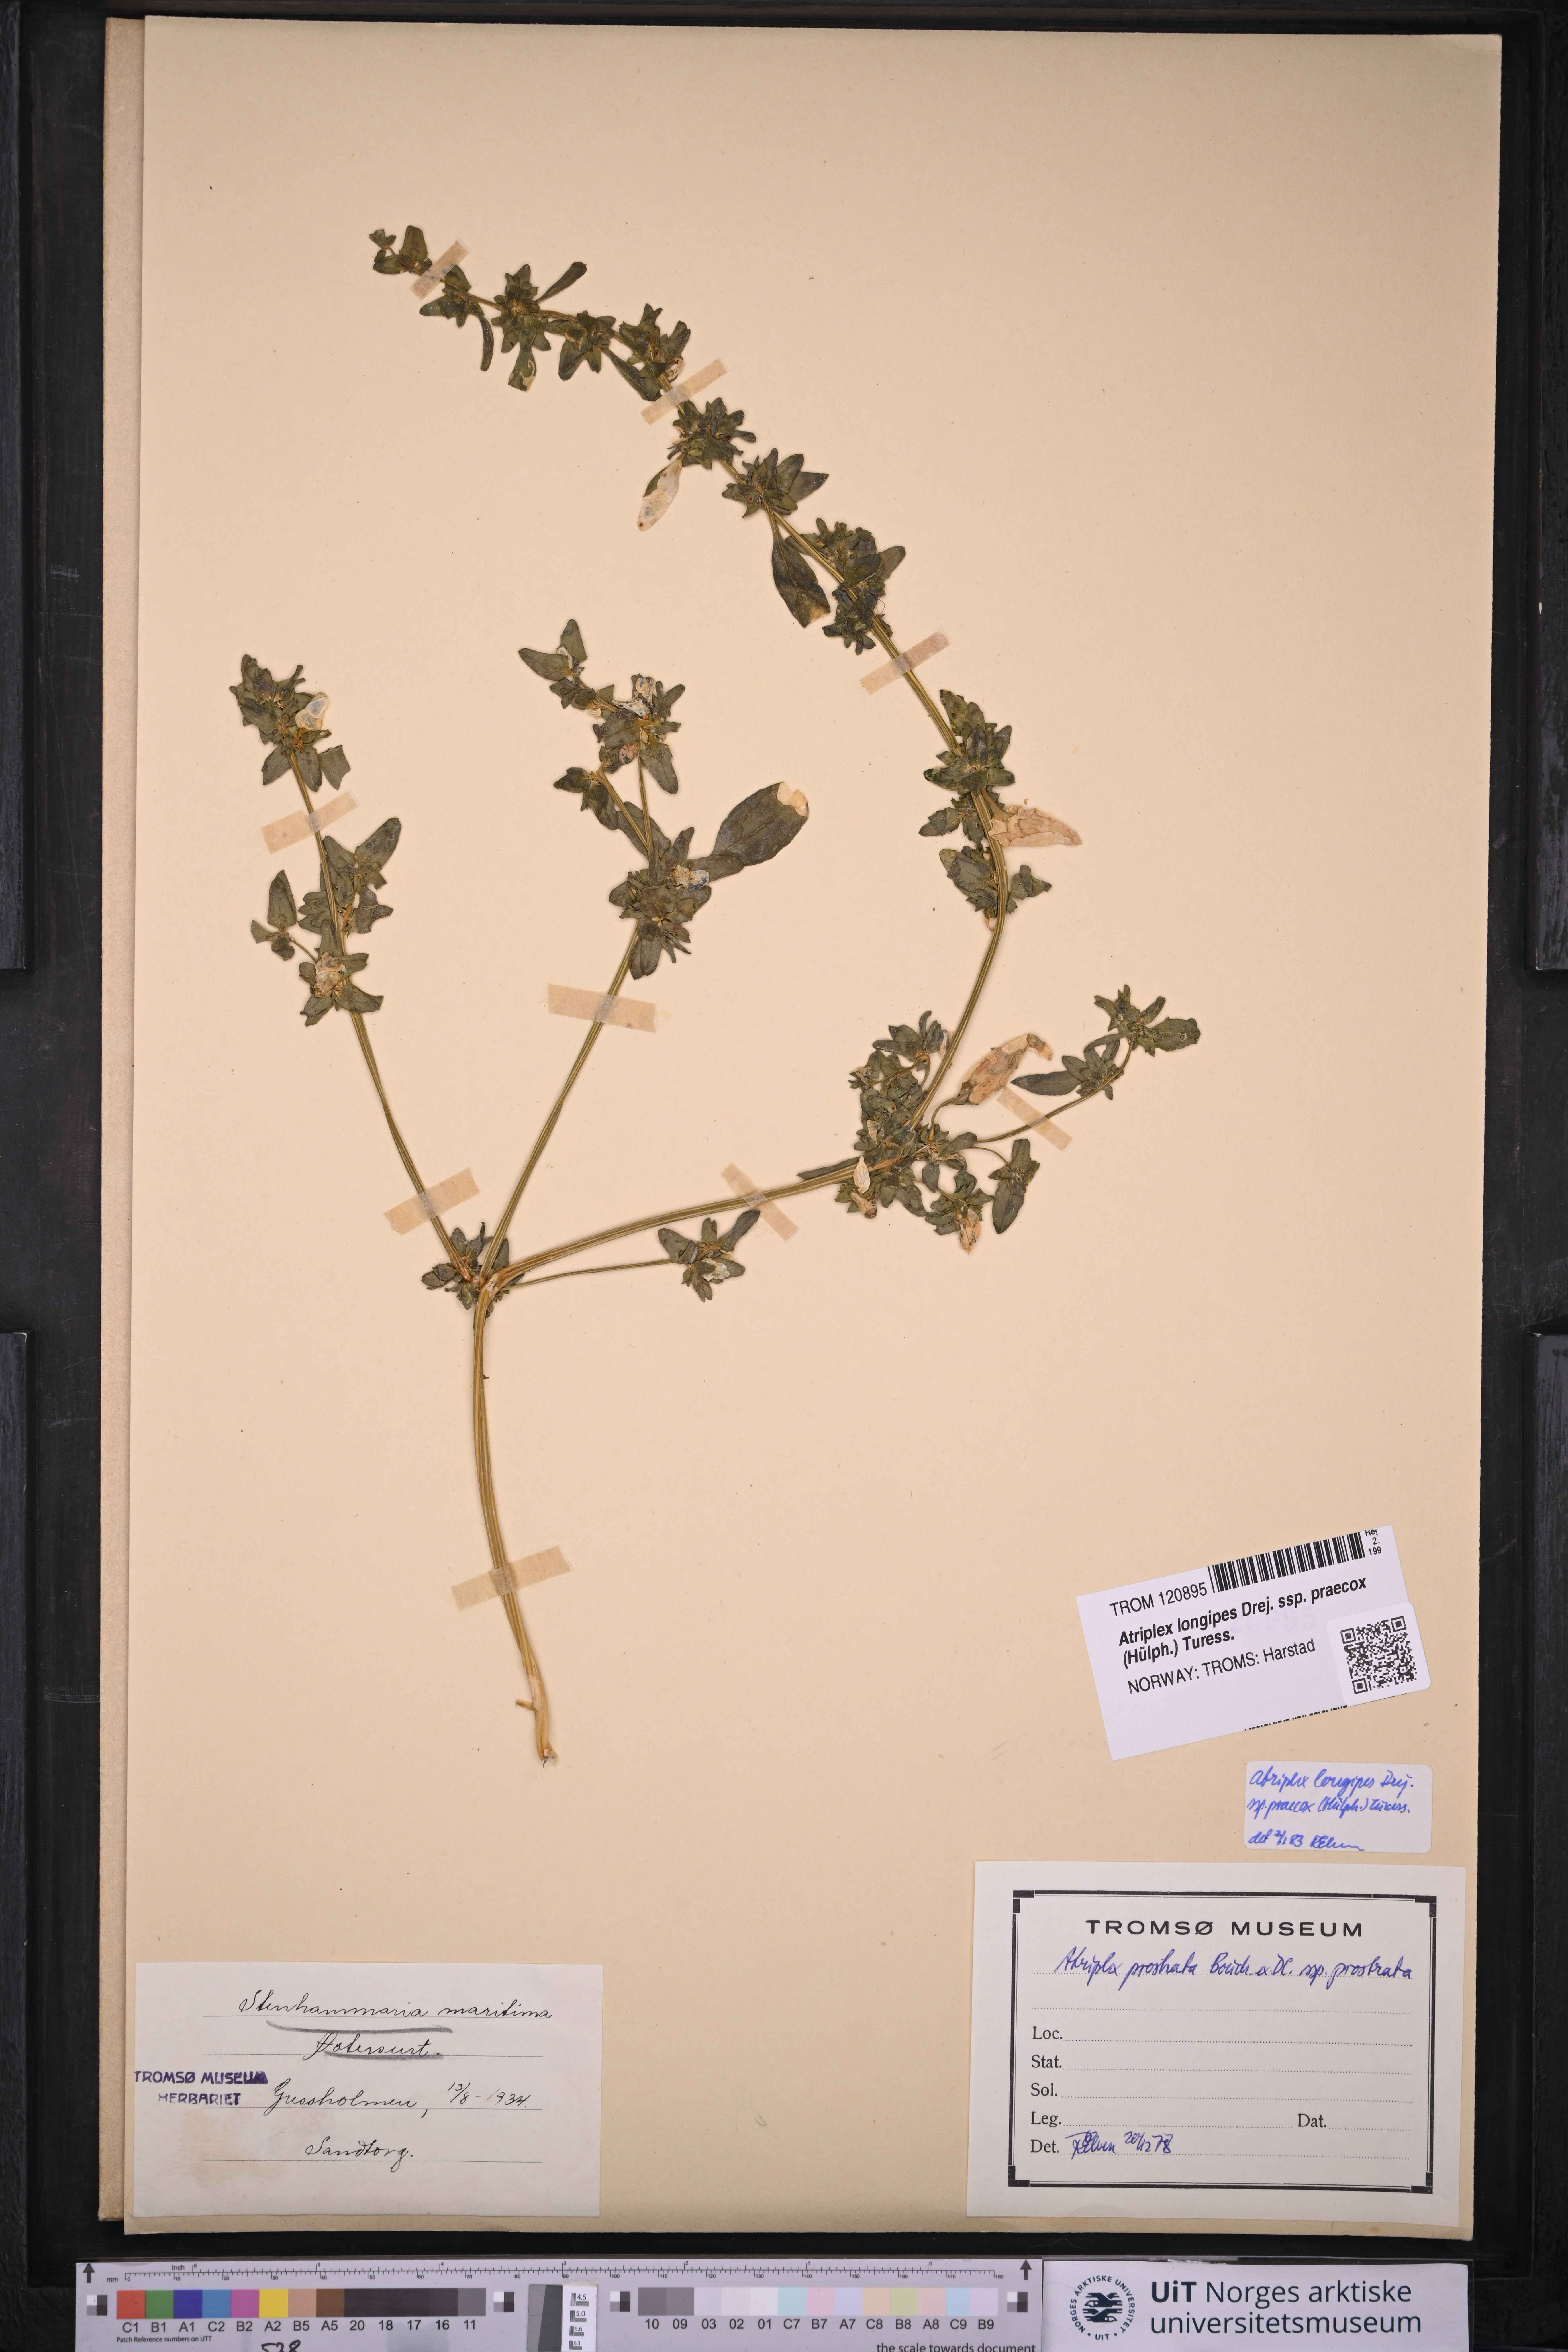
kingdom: Plantae
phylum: Tracheophyta
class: Magnoliopsida
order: Caryophyllales
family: Amaranthaceae
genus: Atriplex
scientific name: Atriplex praecox
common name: Early orache
